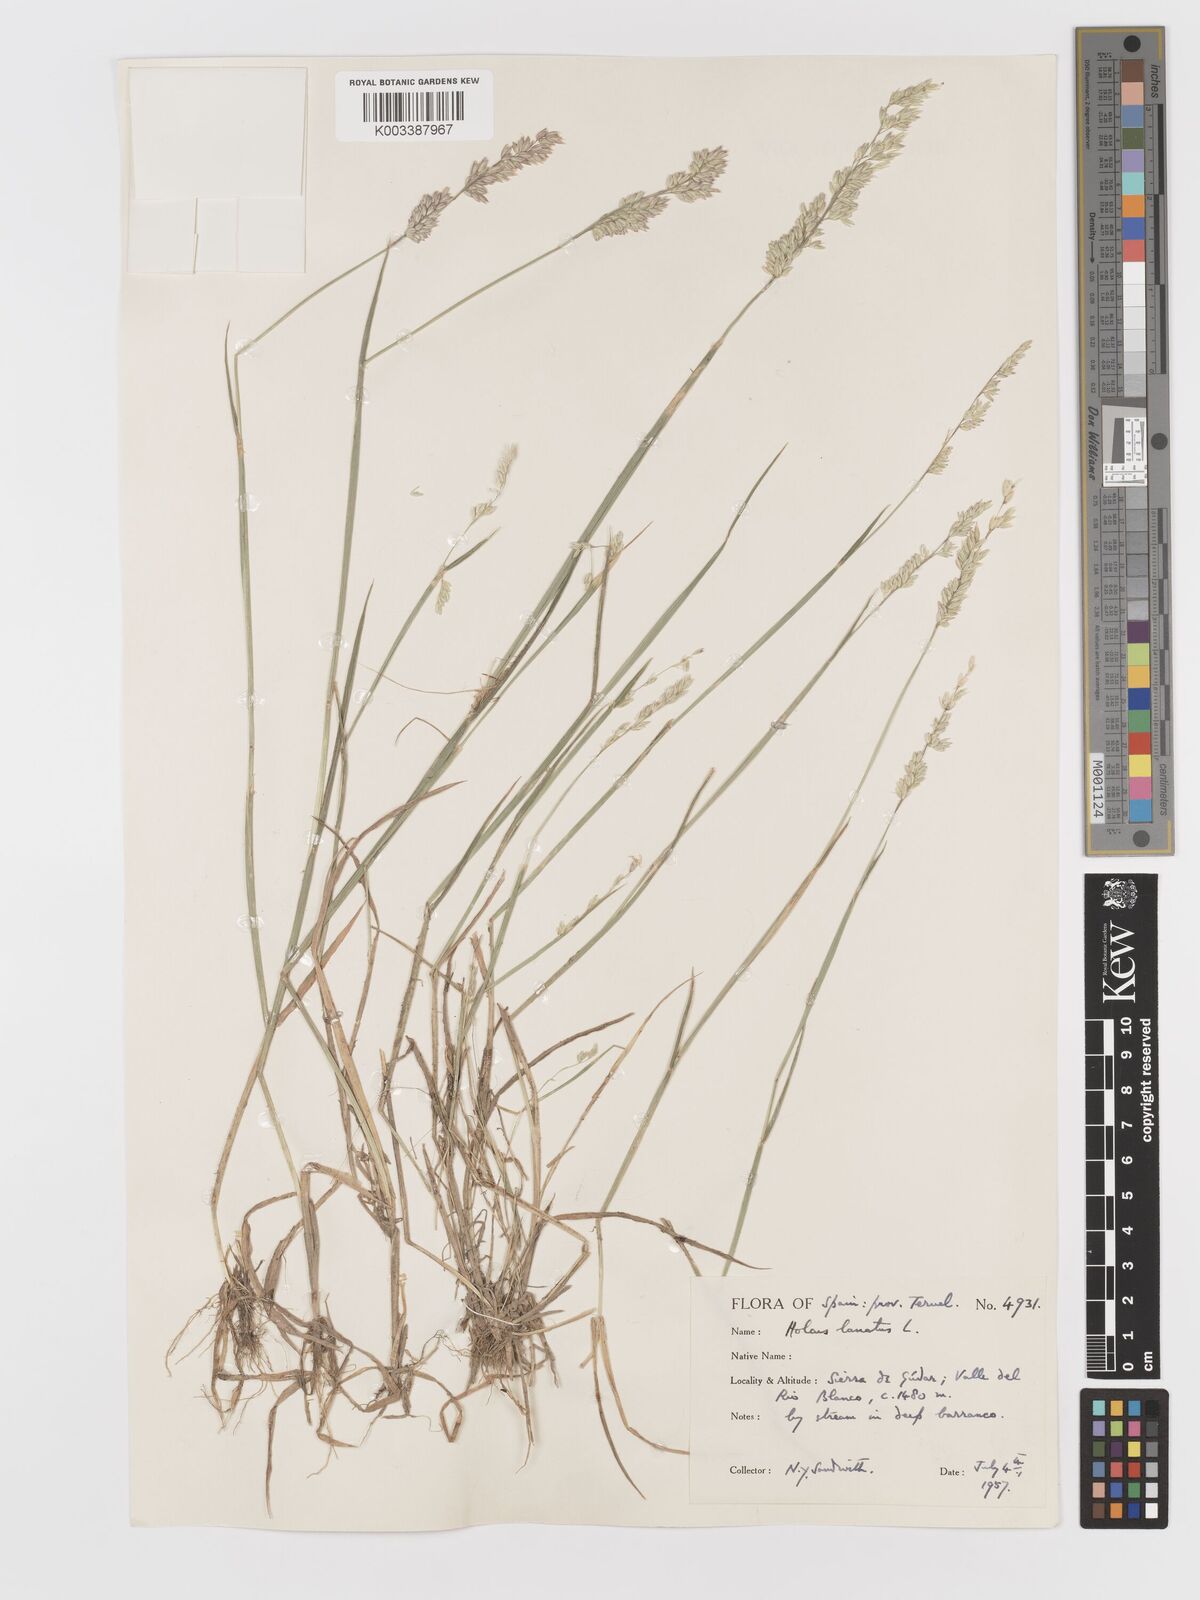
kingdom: Plantae
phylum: Tracheophyta
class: Liliopsida
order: Poales
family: Poaceae
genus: Holcus
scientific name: Holcus lanatus
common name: Yorkshire-fog
